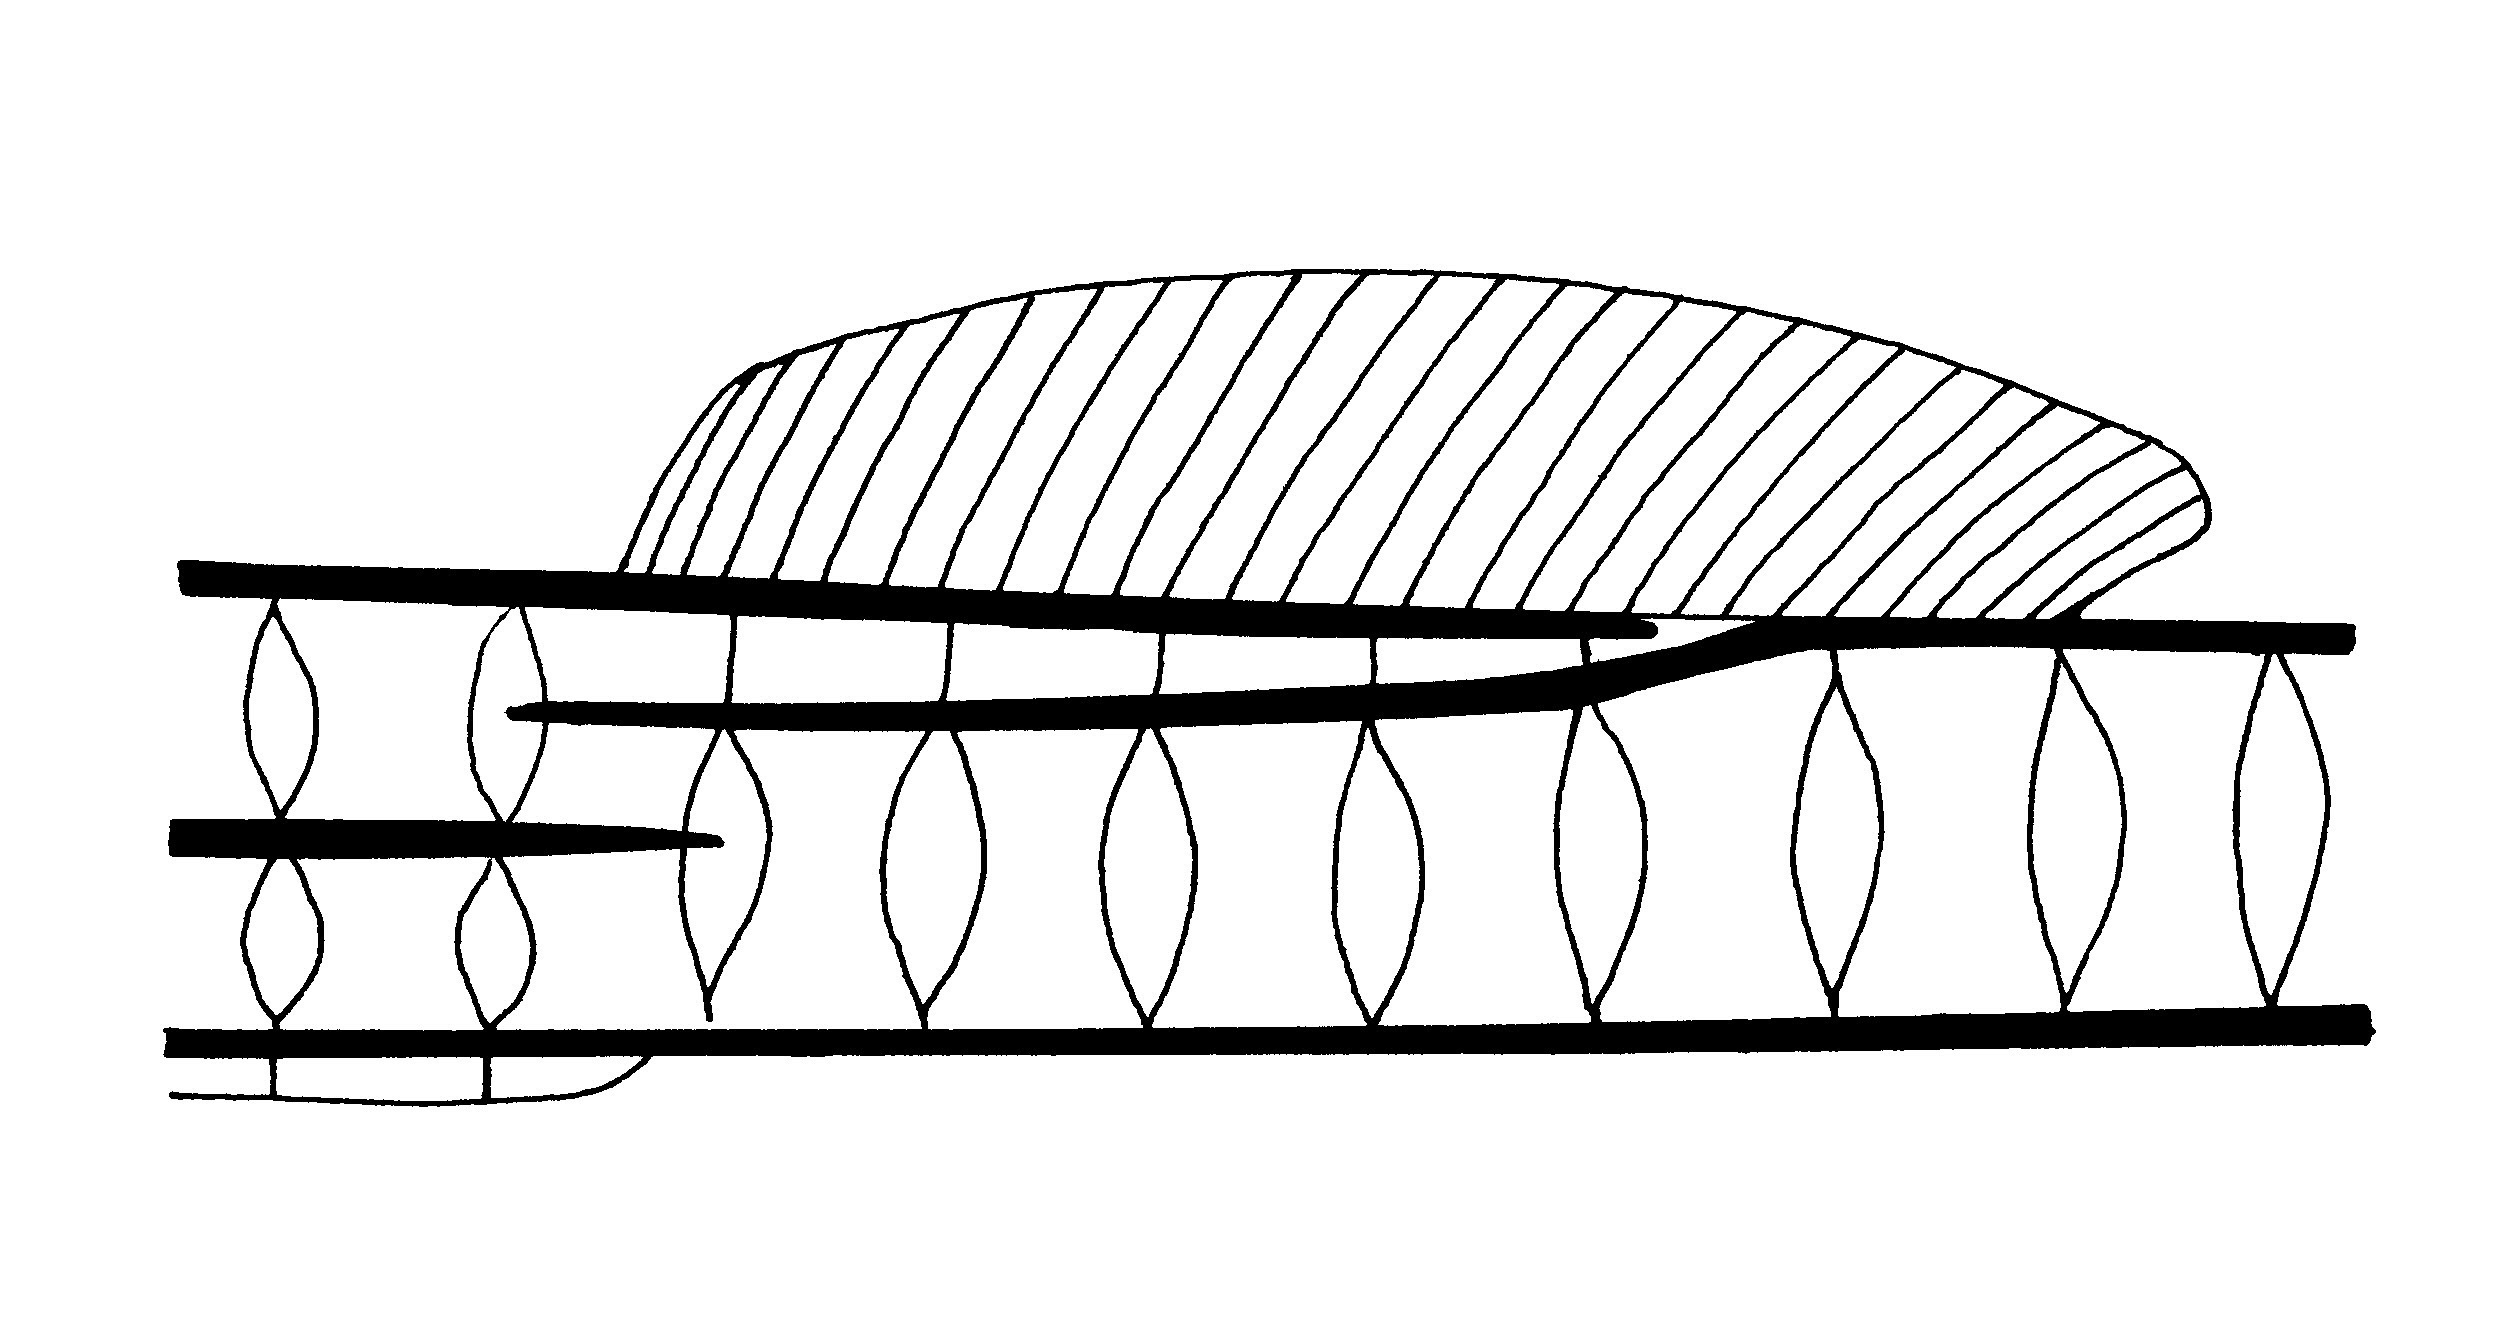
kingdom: Animalia
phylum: Chordata
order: Syngnathiformes
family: Syngnathidae
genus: Bryx
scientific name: Bryx analicarens
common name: Pink pipefish
